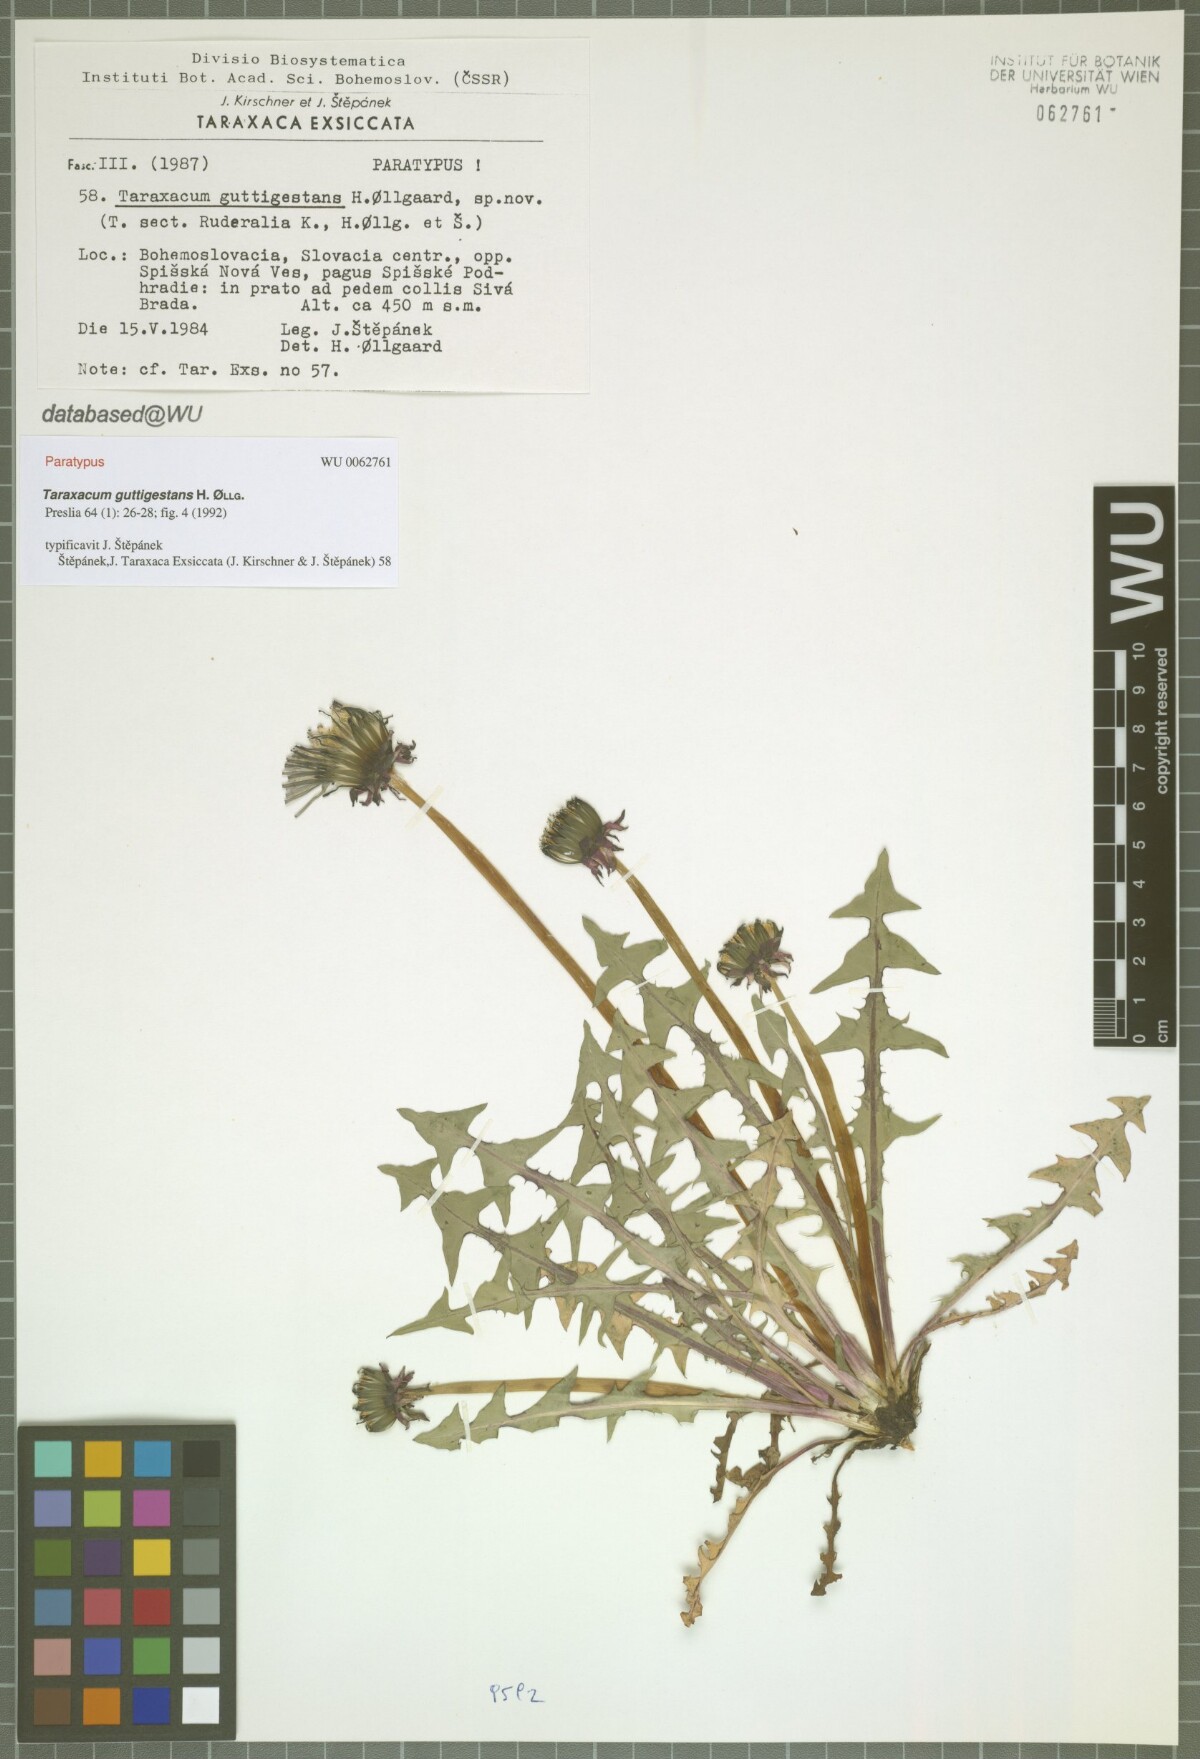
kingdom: Plantae
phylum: Tracheophyta
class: Magnoliopsida
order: Asterales
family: Asteraceae
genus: Taraxacum
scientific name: Taraxacum guttigestans
